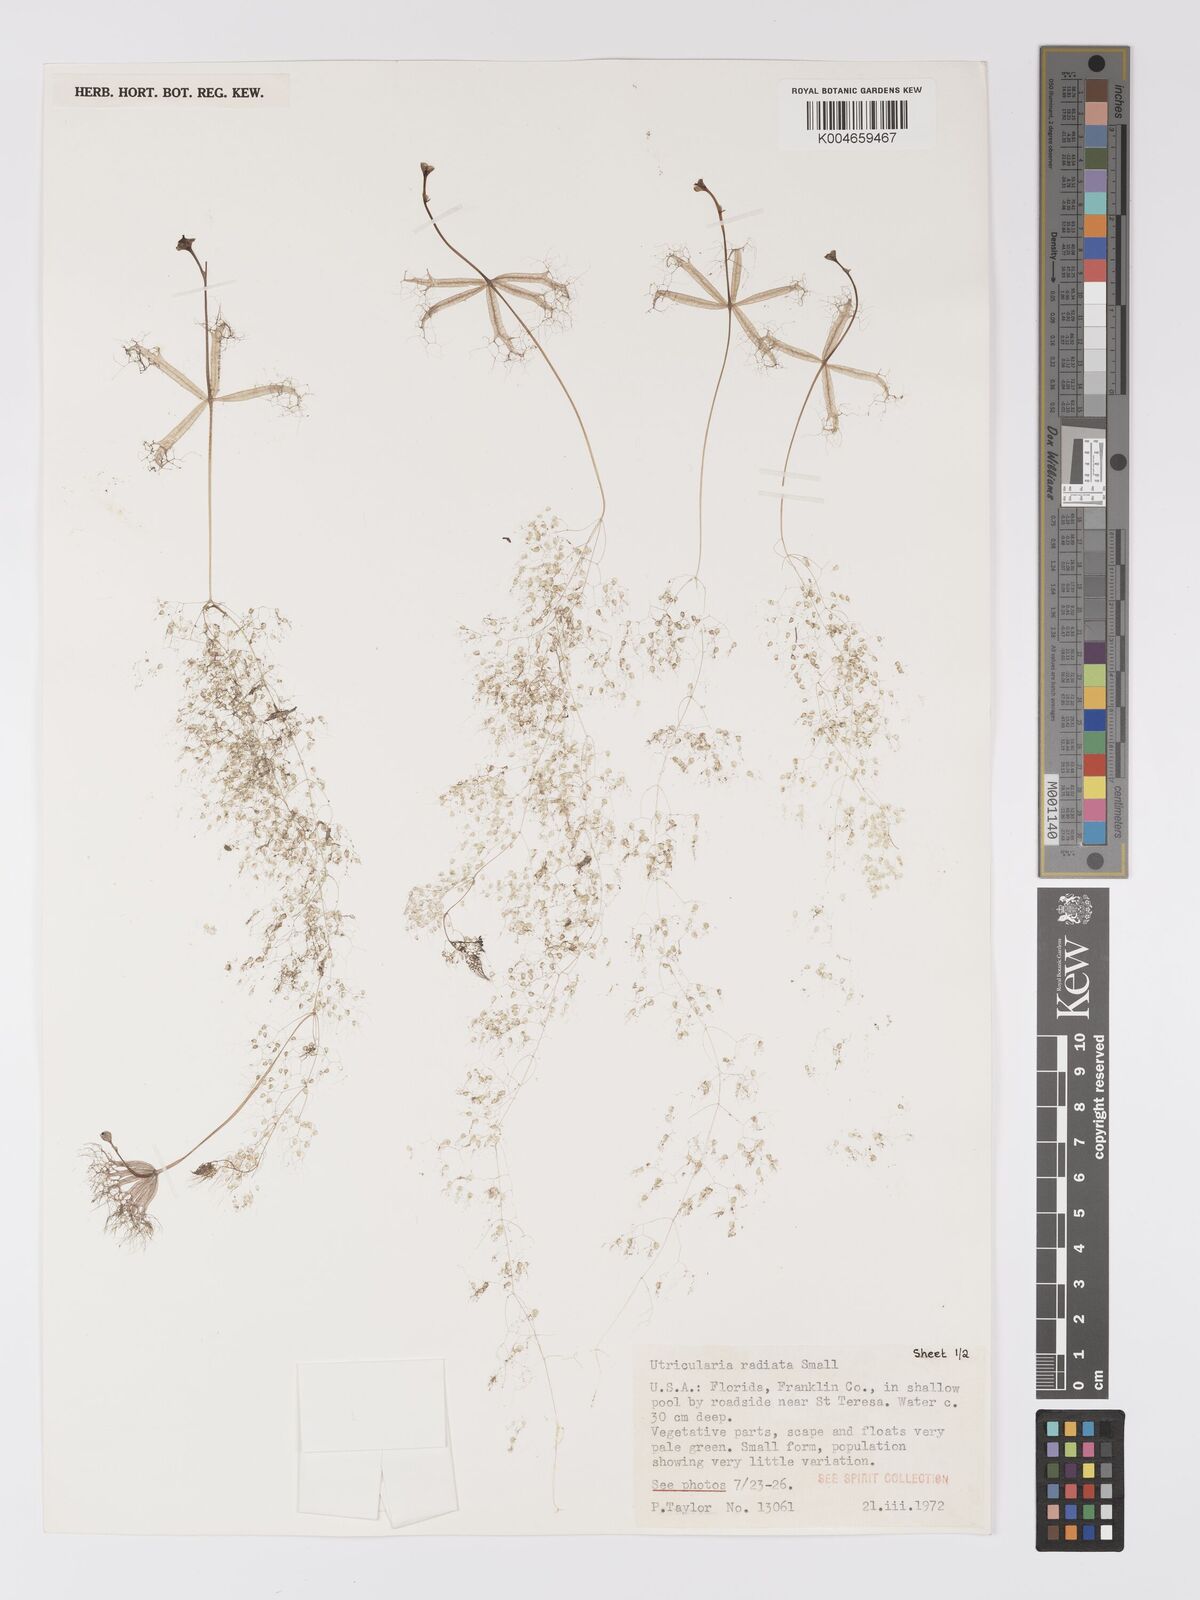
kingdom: Plantae
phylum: Tracheophyta
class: Magnoliopsida
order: Lamiales
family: Lentibulariaceae
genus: Utricularia
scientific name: Utricularia radiata
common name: Floating bladderwort
